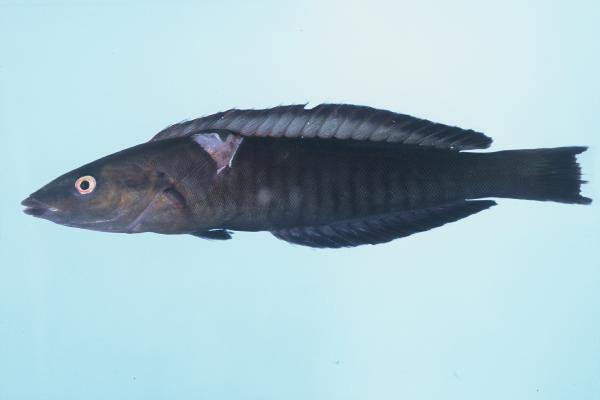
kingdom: Animalia
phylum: Chordata
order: Perciformes
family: Labridae
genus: Hologymnosus
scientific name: Hologymnosus annulatus
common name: Ring wrasse
